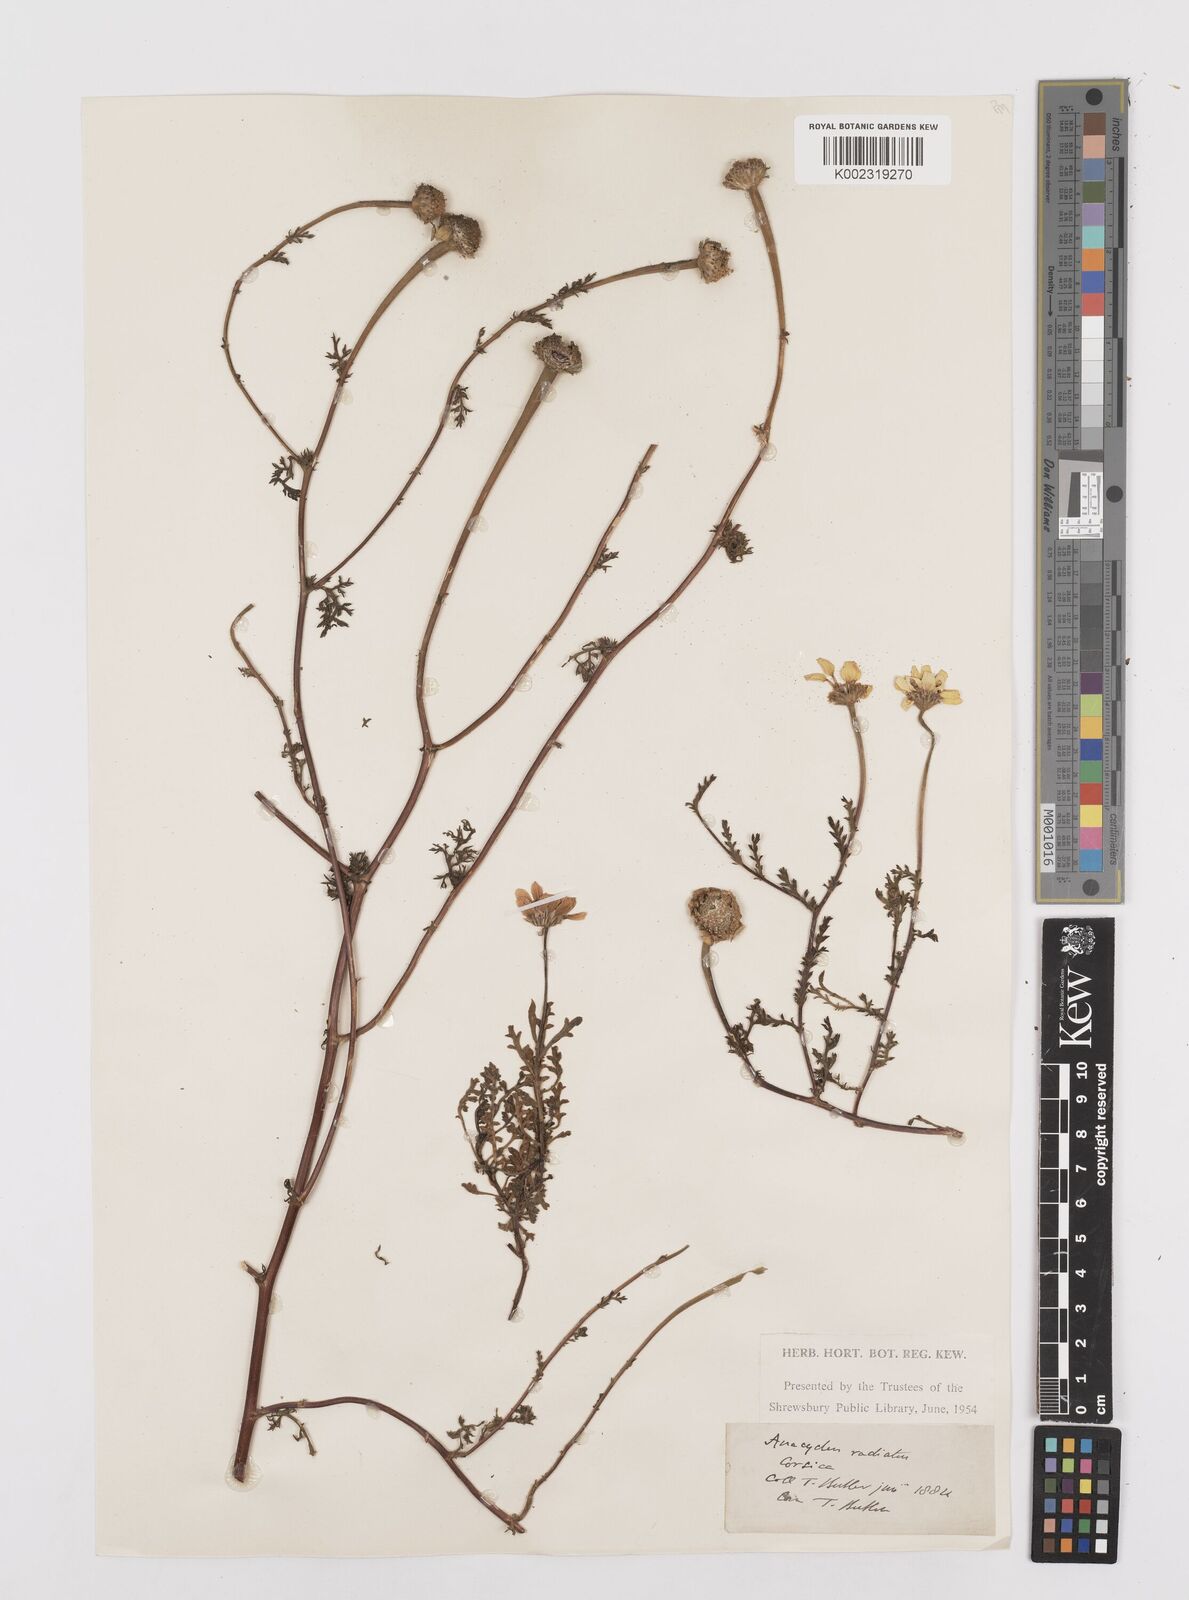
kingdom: Plantae
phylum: Tracheophyta
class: Magnoliopsida
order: Asterales
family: Asteraceae
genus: Anacyclus
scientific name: Anacyclus radiatus
